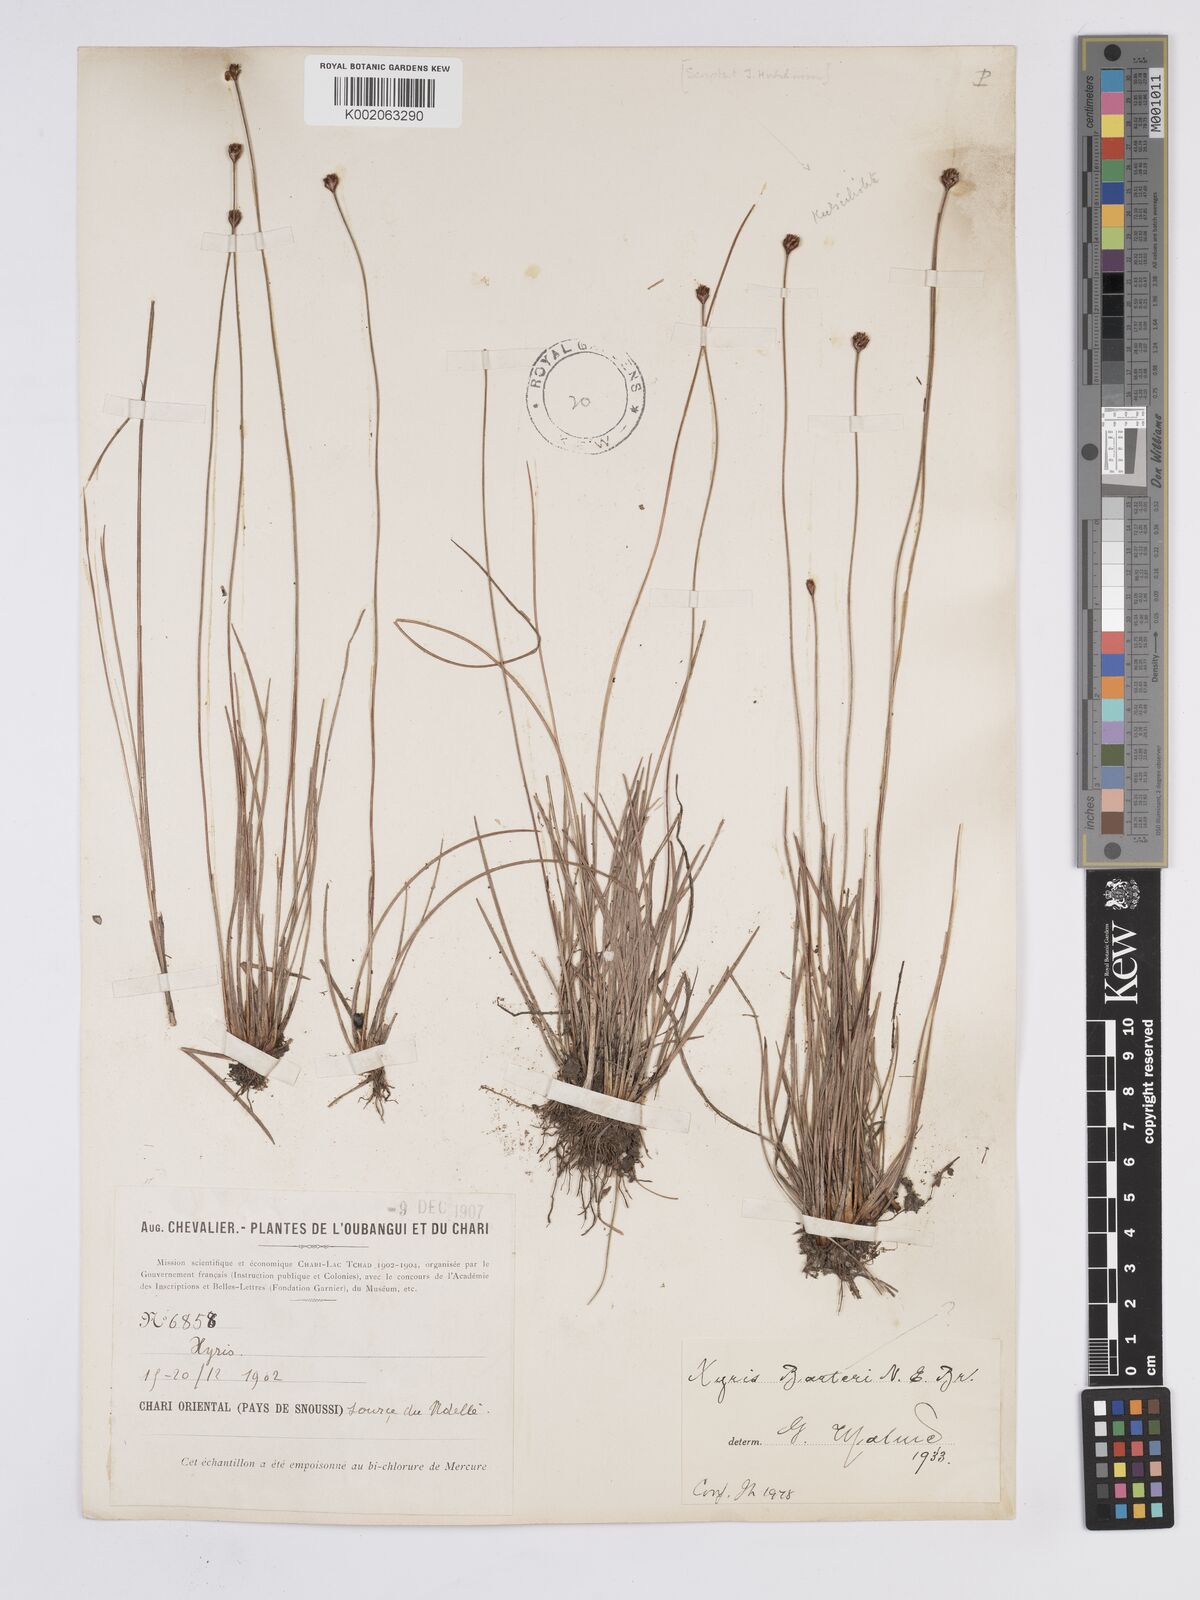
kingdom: Plantae
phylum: Tracheophyta
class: Liliopsida
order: Poales
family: Xyridaceae
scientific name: Xyridaceae
